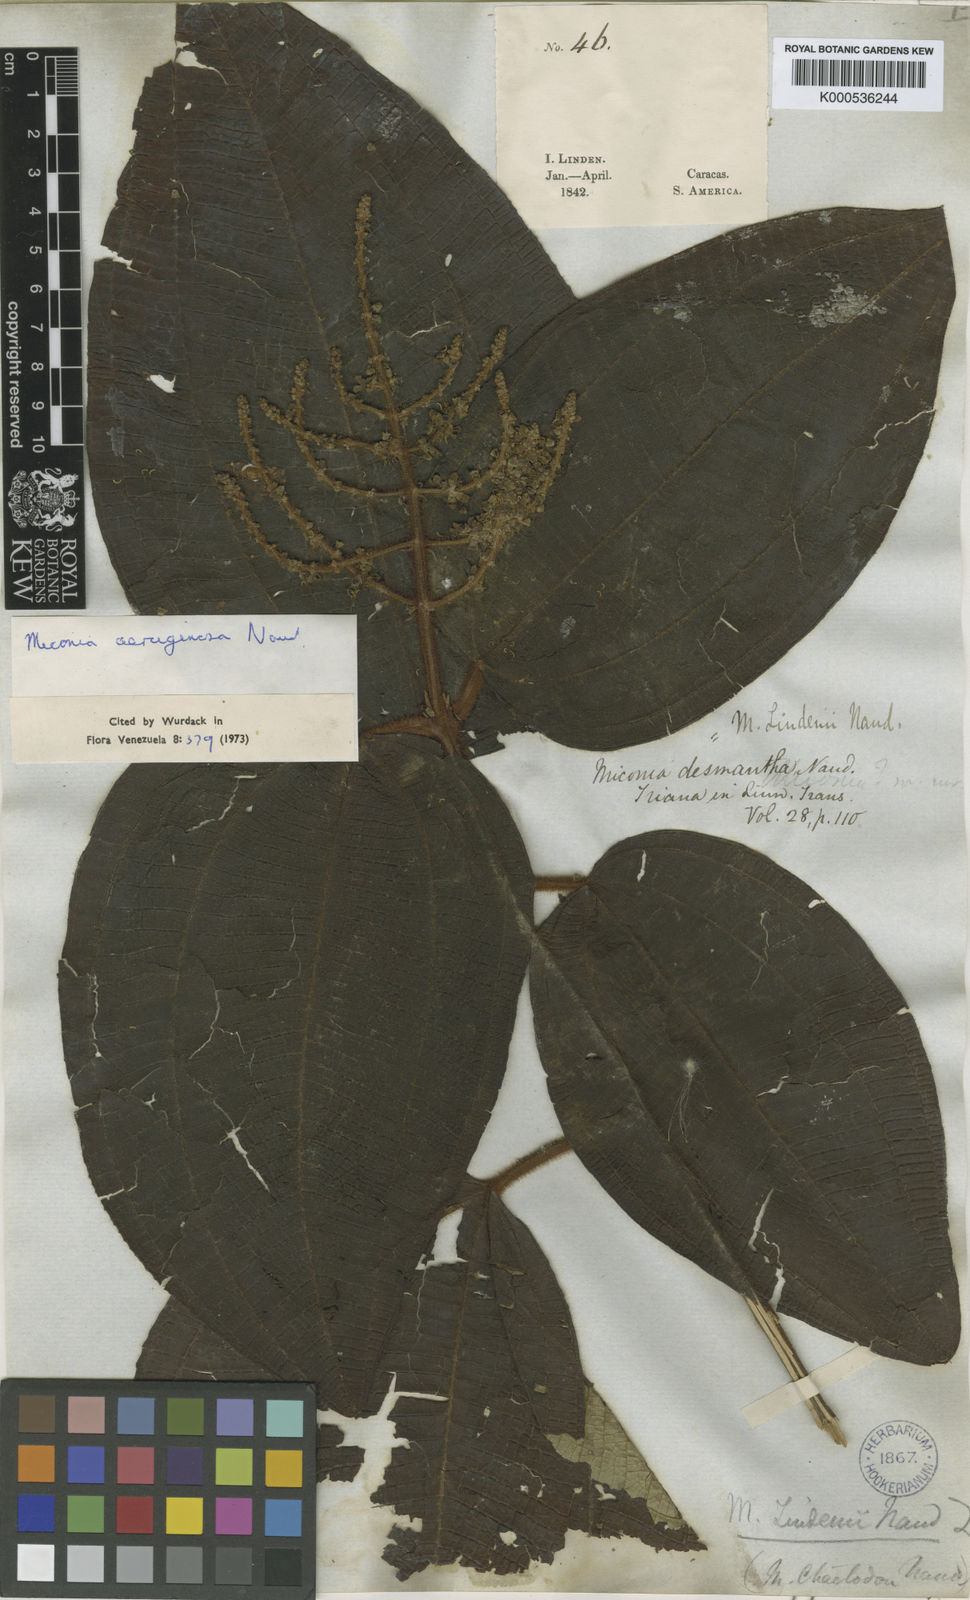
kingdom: Plantae
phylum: Tracheophyta
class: Magnoliopsida
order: Myrtales
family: Melastomataceae
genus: Miconia
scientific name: Miconia aeruginosa
